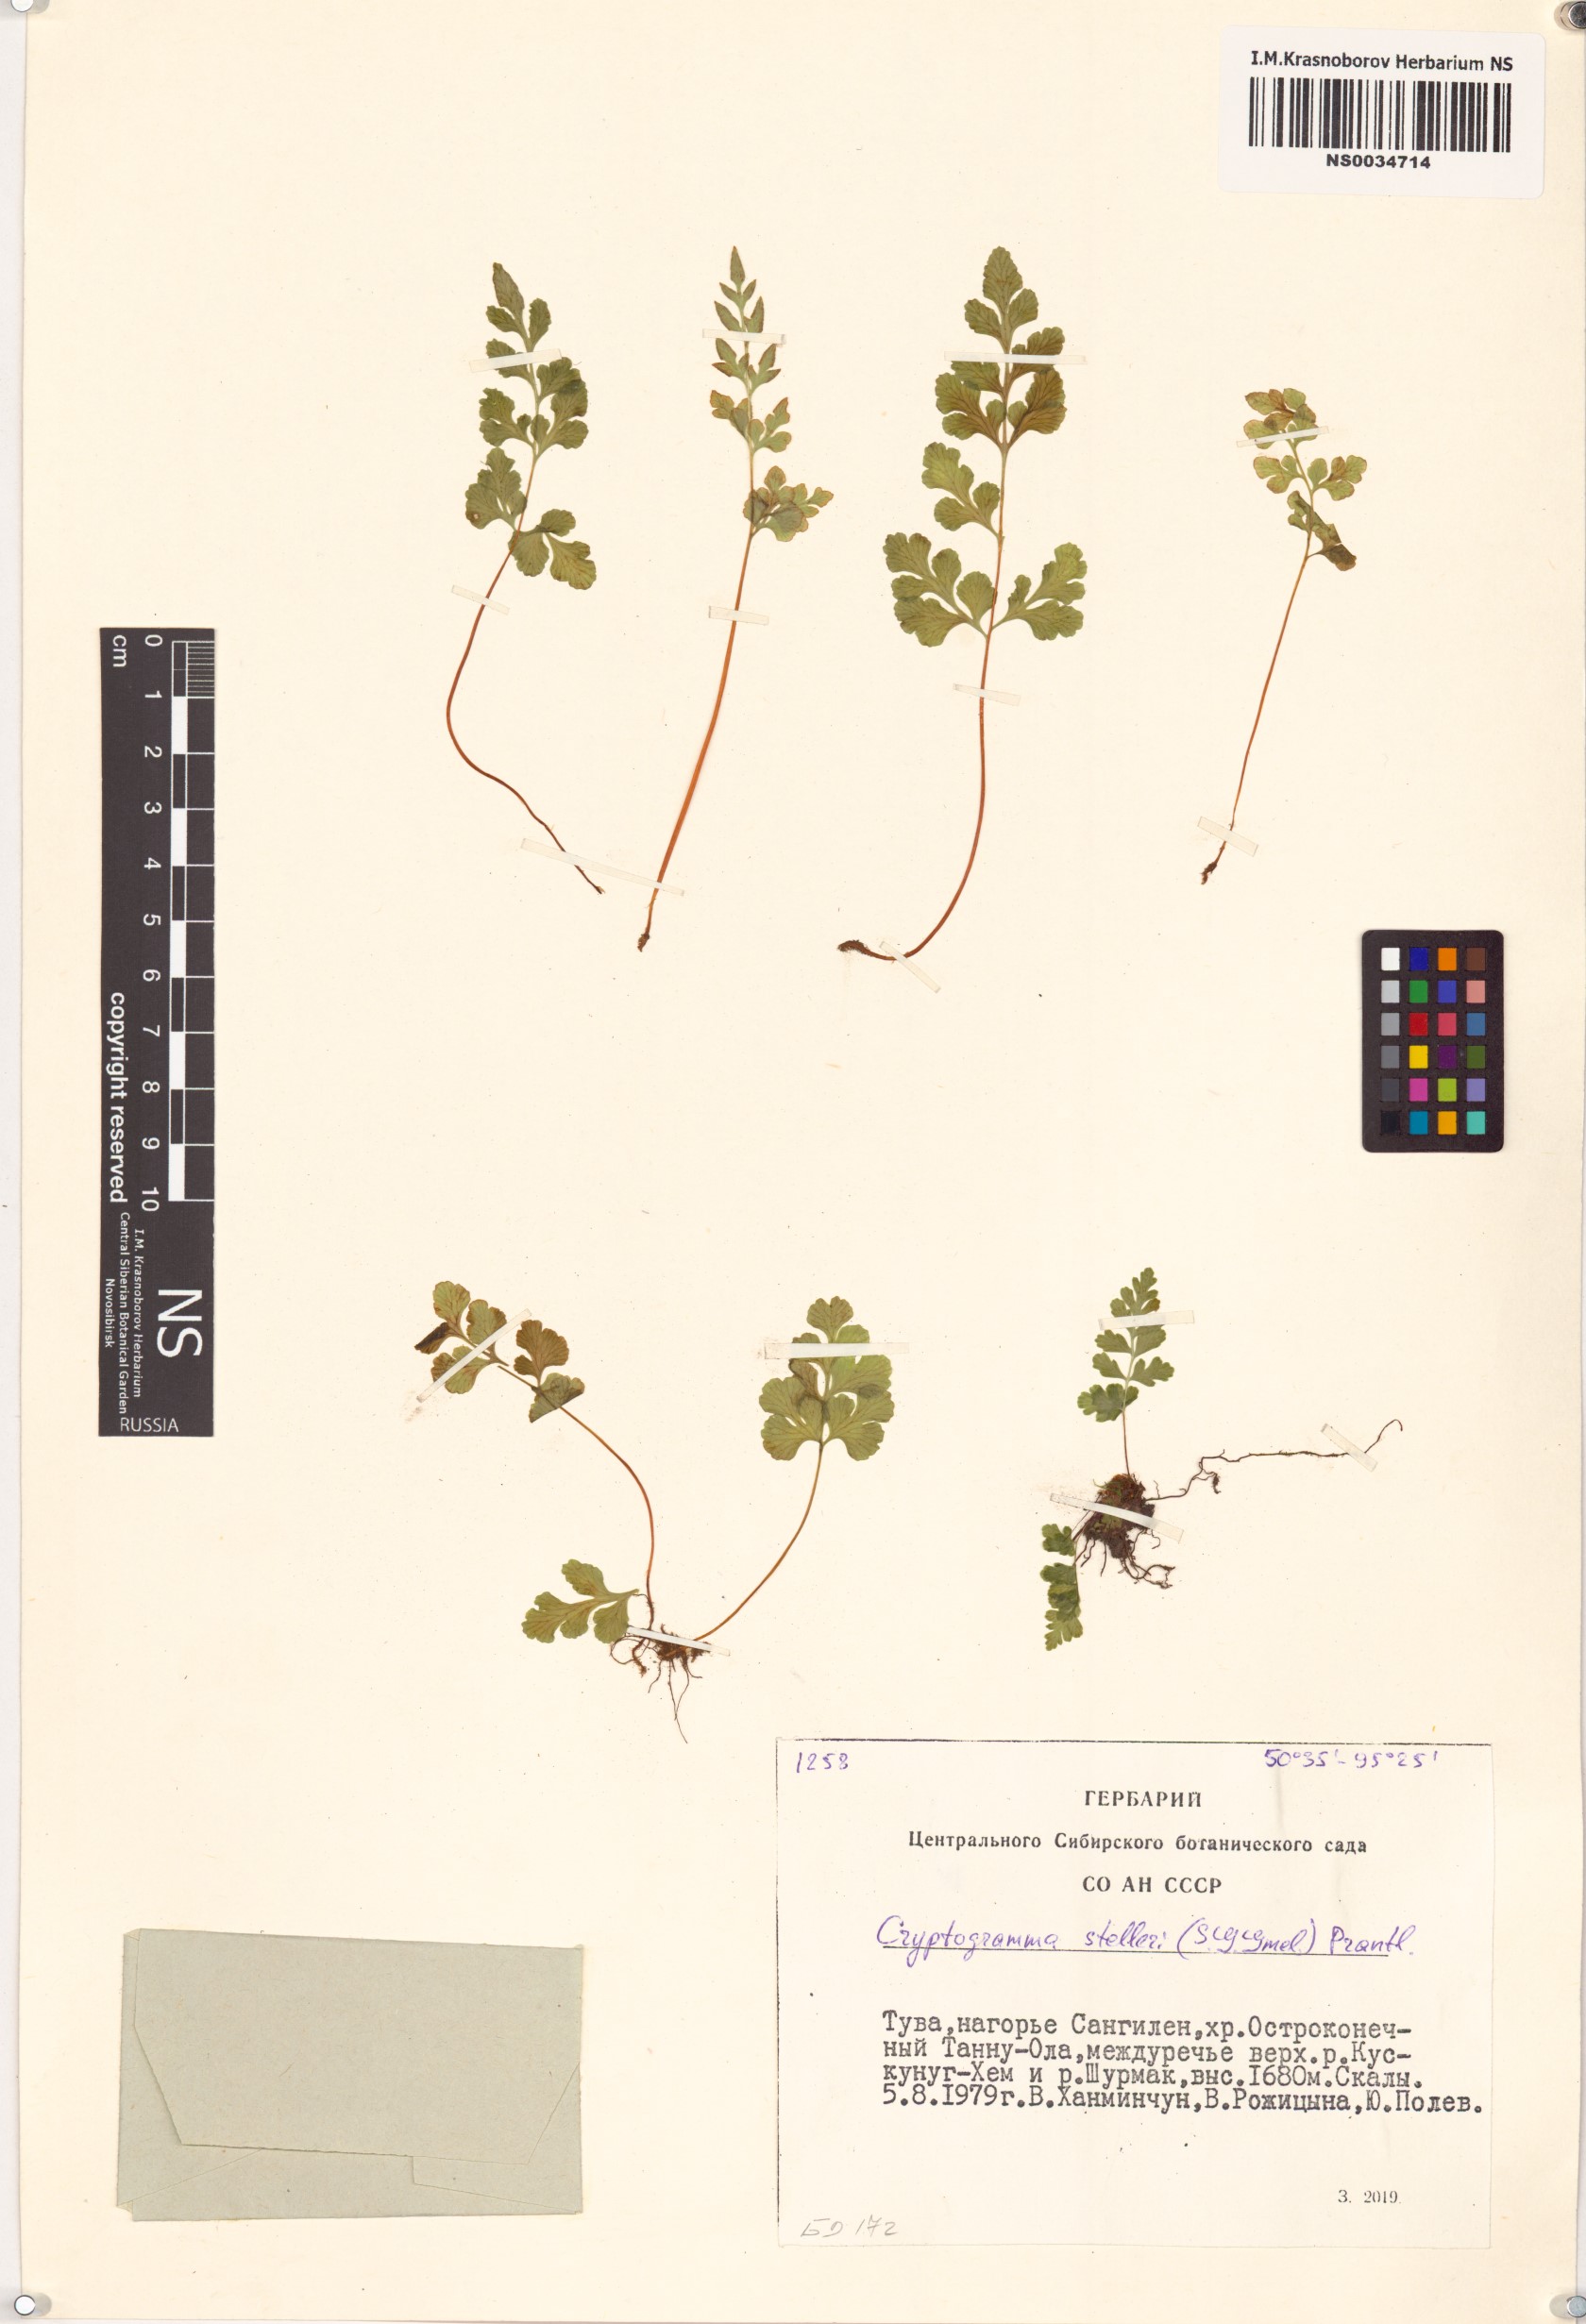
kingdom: Plantae
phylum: Tracheophyta
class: Polypodiopsida
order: Polypodiales
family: Pteridaceae
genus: Cryptogramma
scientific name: Cryptogramma stelleri
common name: Cliff-brake
